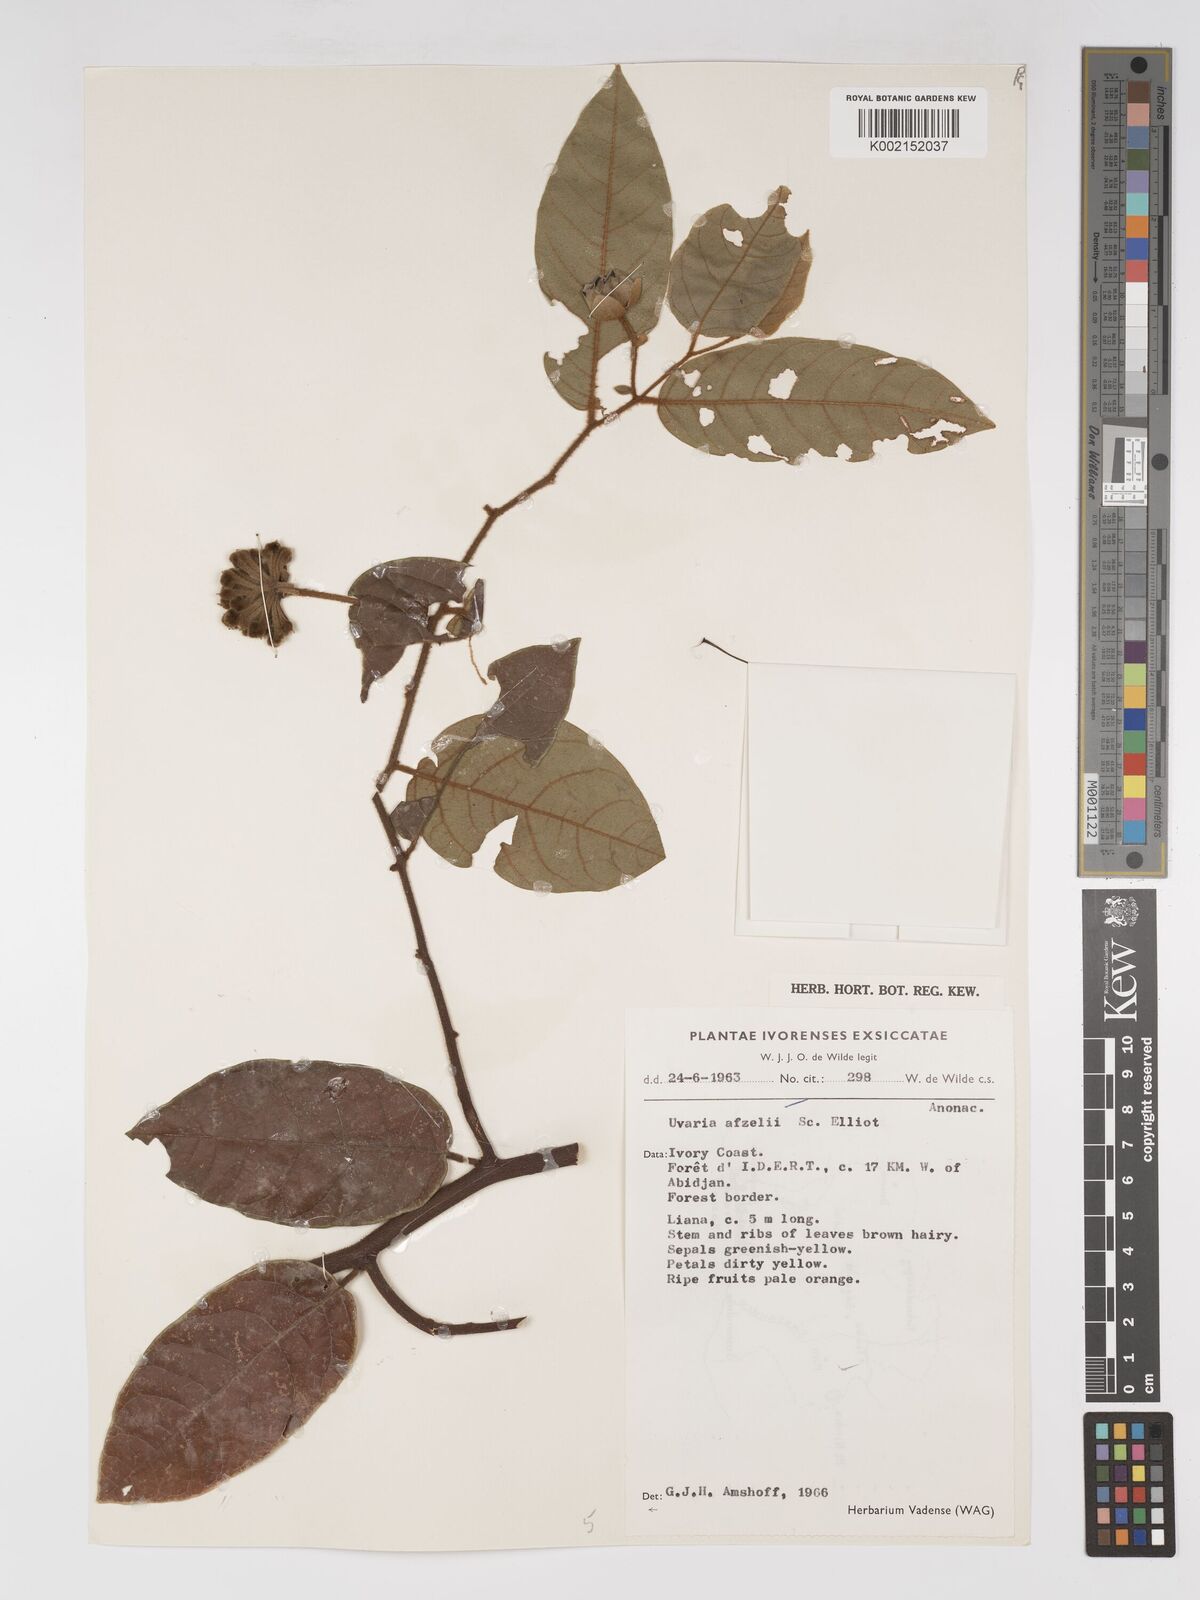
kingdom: Plantae
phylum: Tracheophyta
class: Magnoliopsida
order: Magnoliales
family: Annonaceae
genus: Uvaria
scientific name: Uvaria afzelii
